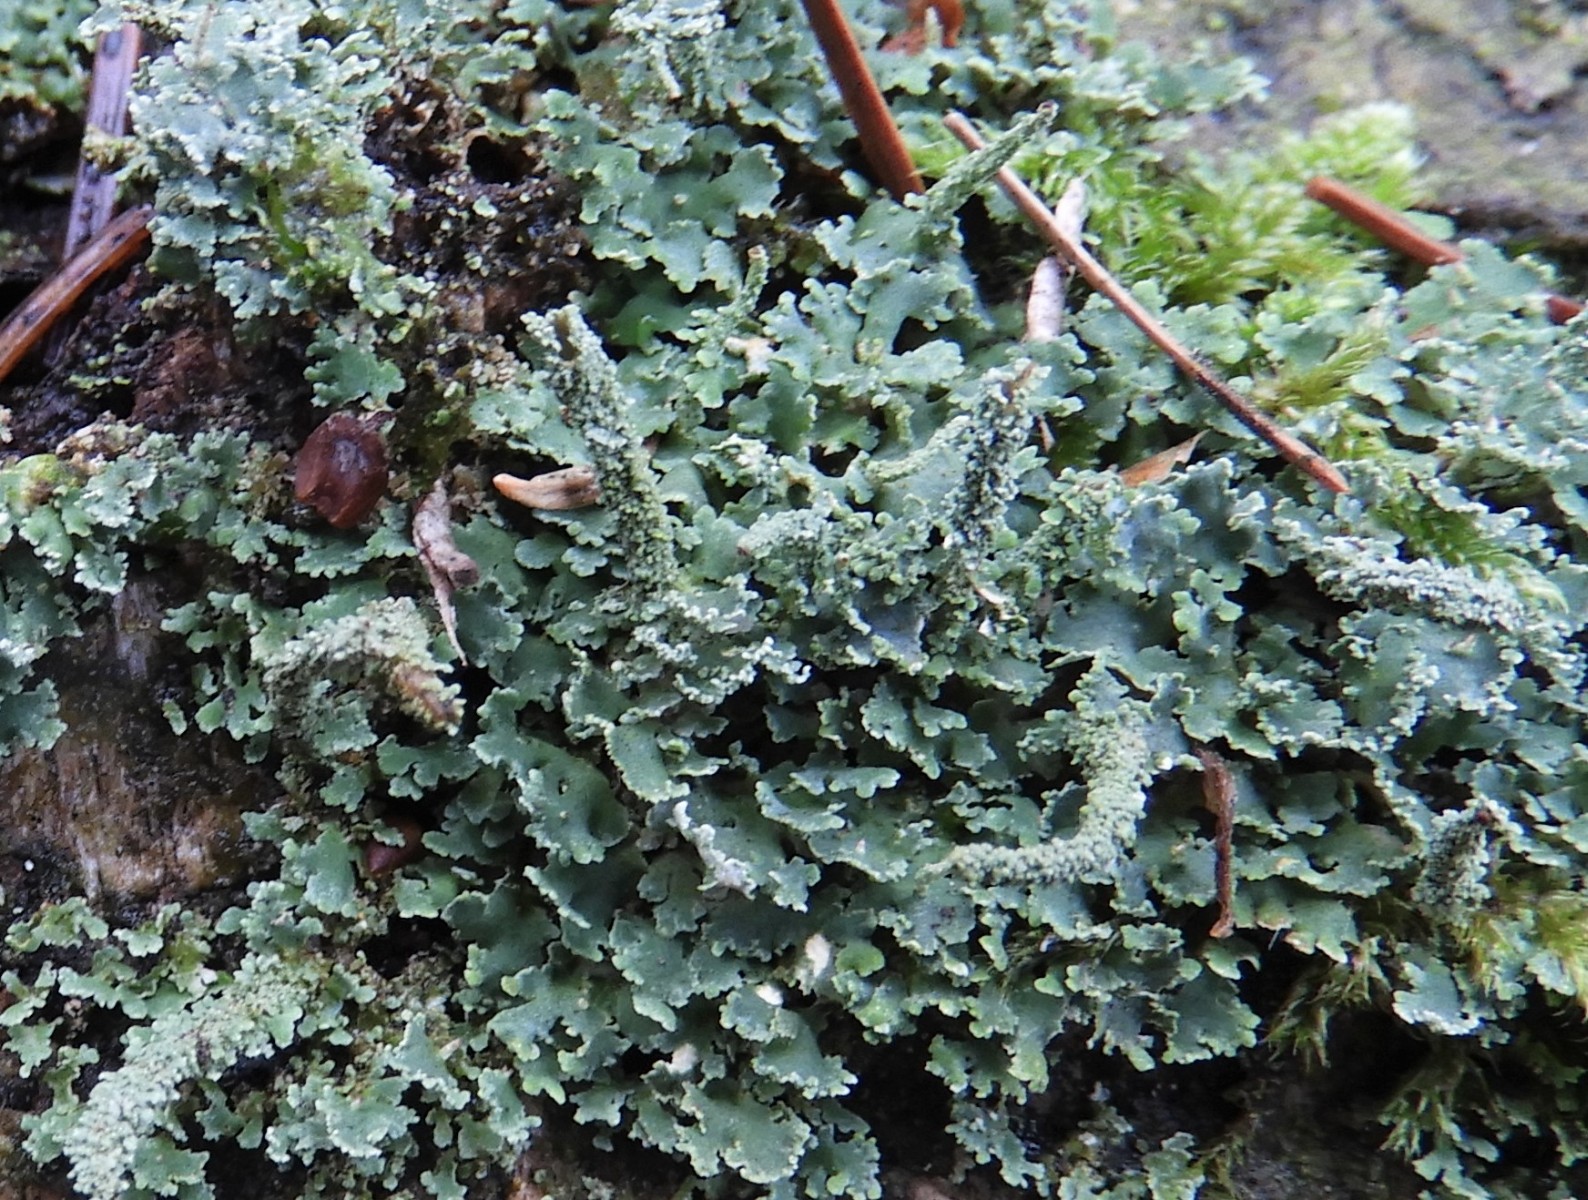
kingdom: Fungi
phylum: Ascomycota
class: Lecanoromycetes
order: Lecanorales
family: Cladoniaceae
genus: Cladonia
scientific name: Cladonia polydactyla
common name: vifte-bægerlav
